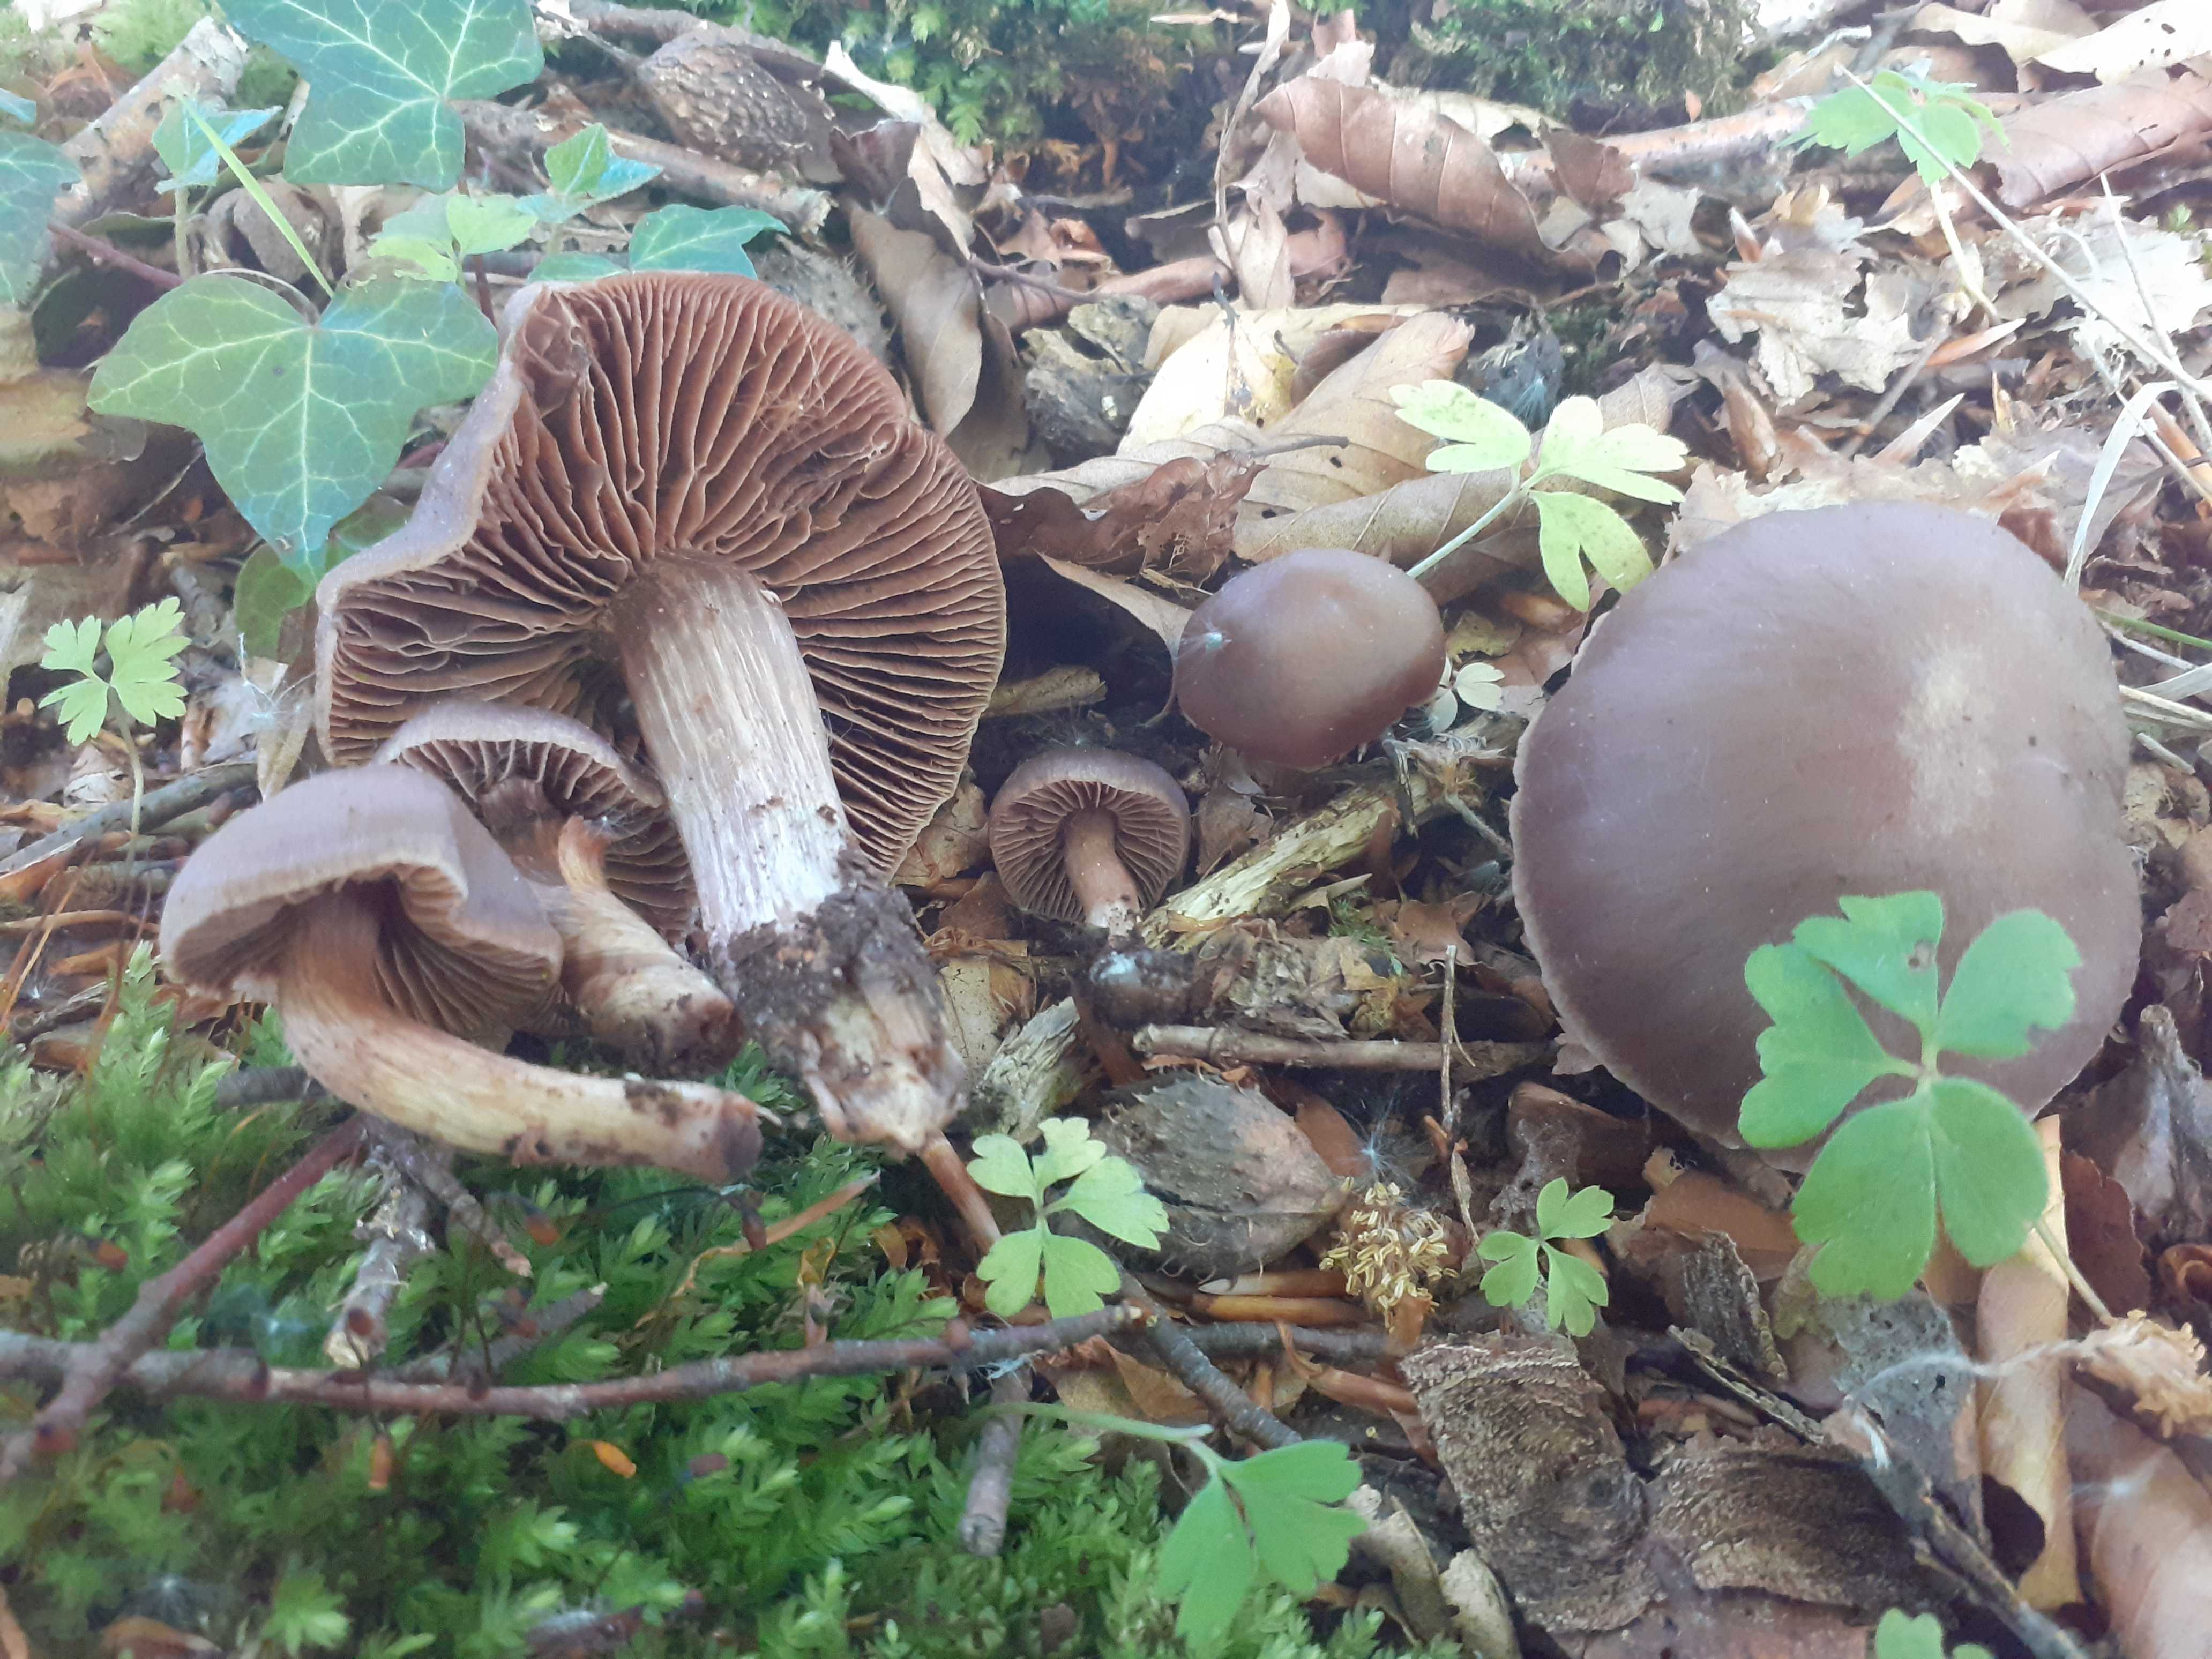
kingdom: Fungi
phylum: Basidiomycota
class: Agaricomycetes
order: Agaricales
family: Cortinariaceae
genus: Cortinarius
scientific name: Cortinarius nolaneiformis
